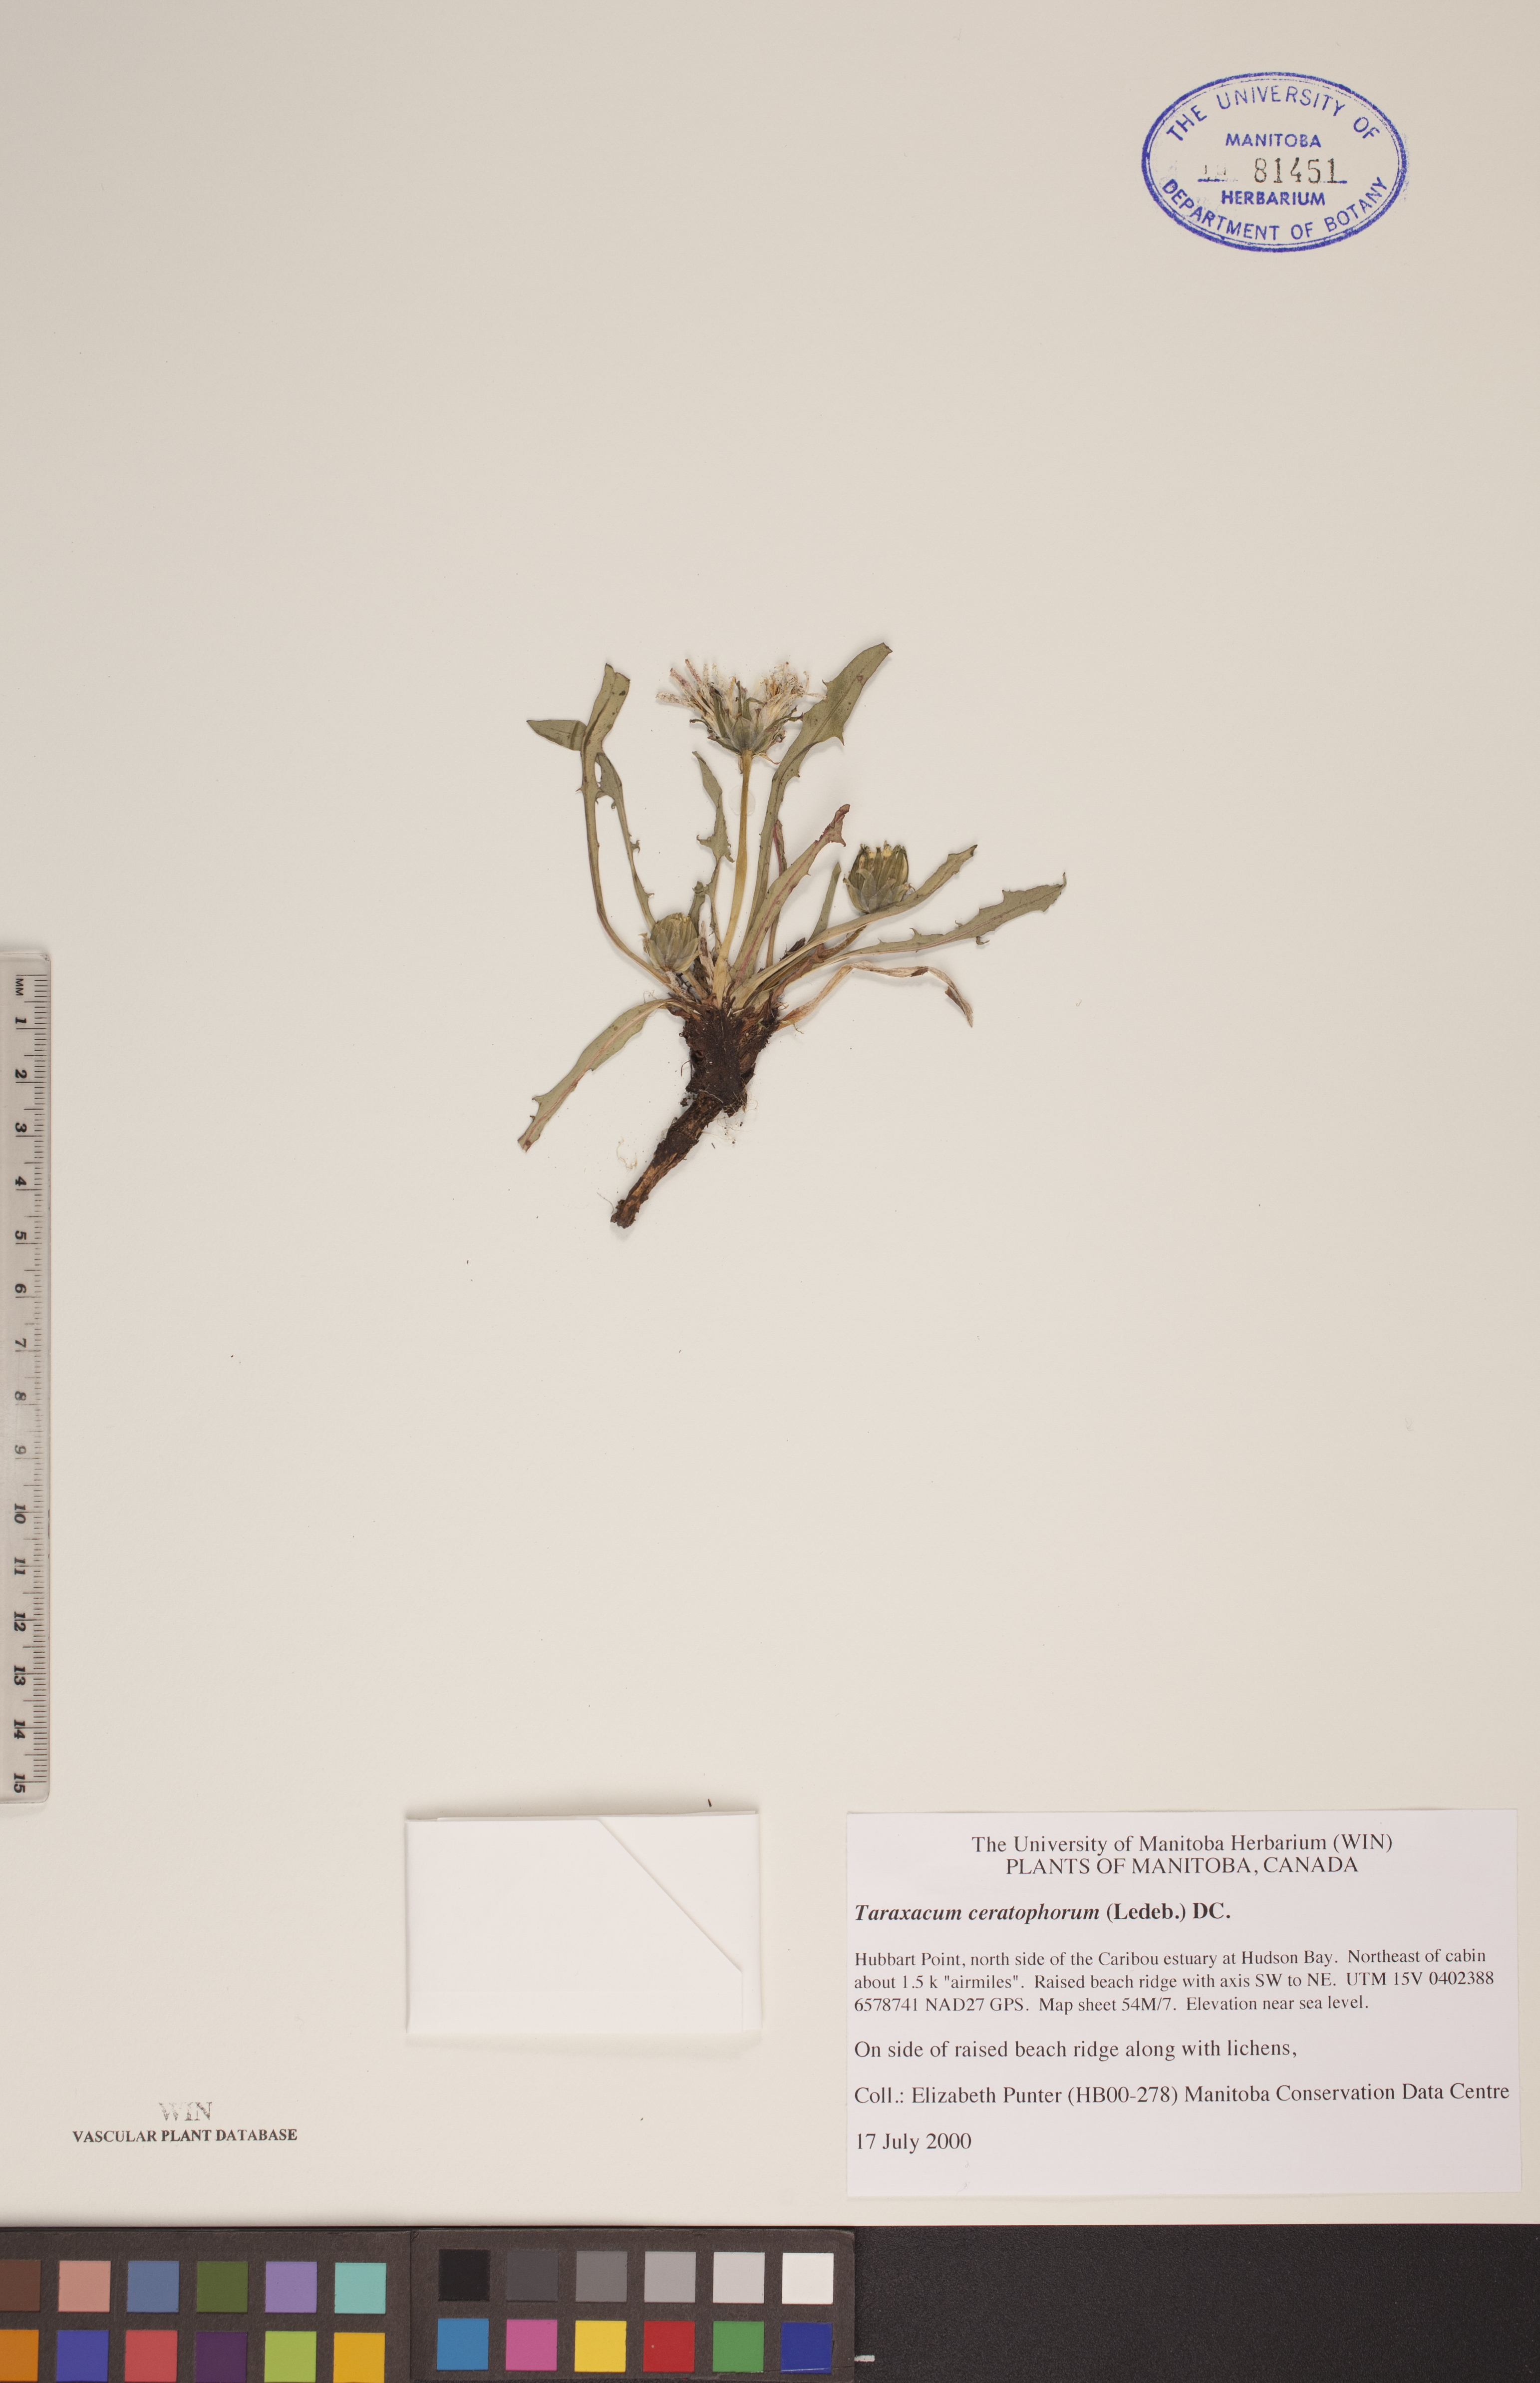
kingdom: Plantae
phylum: Tracheophyta
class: Magnoliopsida
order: Asterales
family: Asteraceae
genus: Taraxacum
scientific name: Taraxacum ceratophorum
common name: Horn-bearing dandelion
